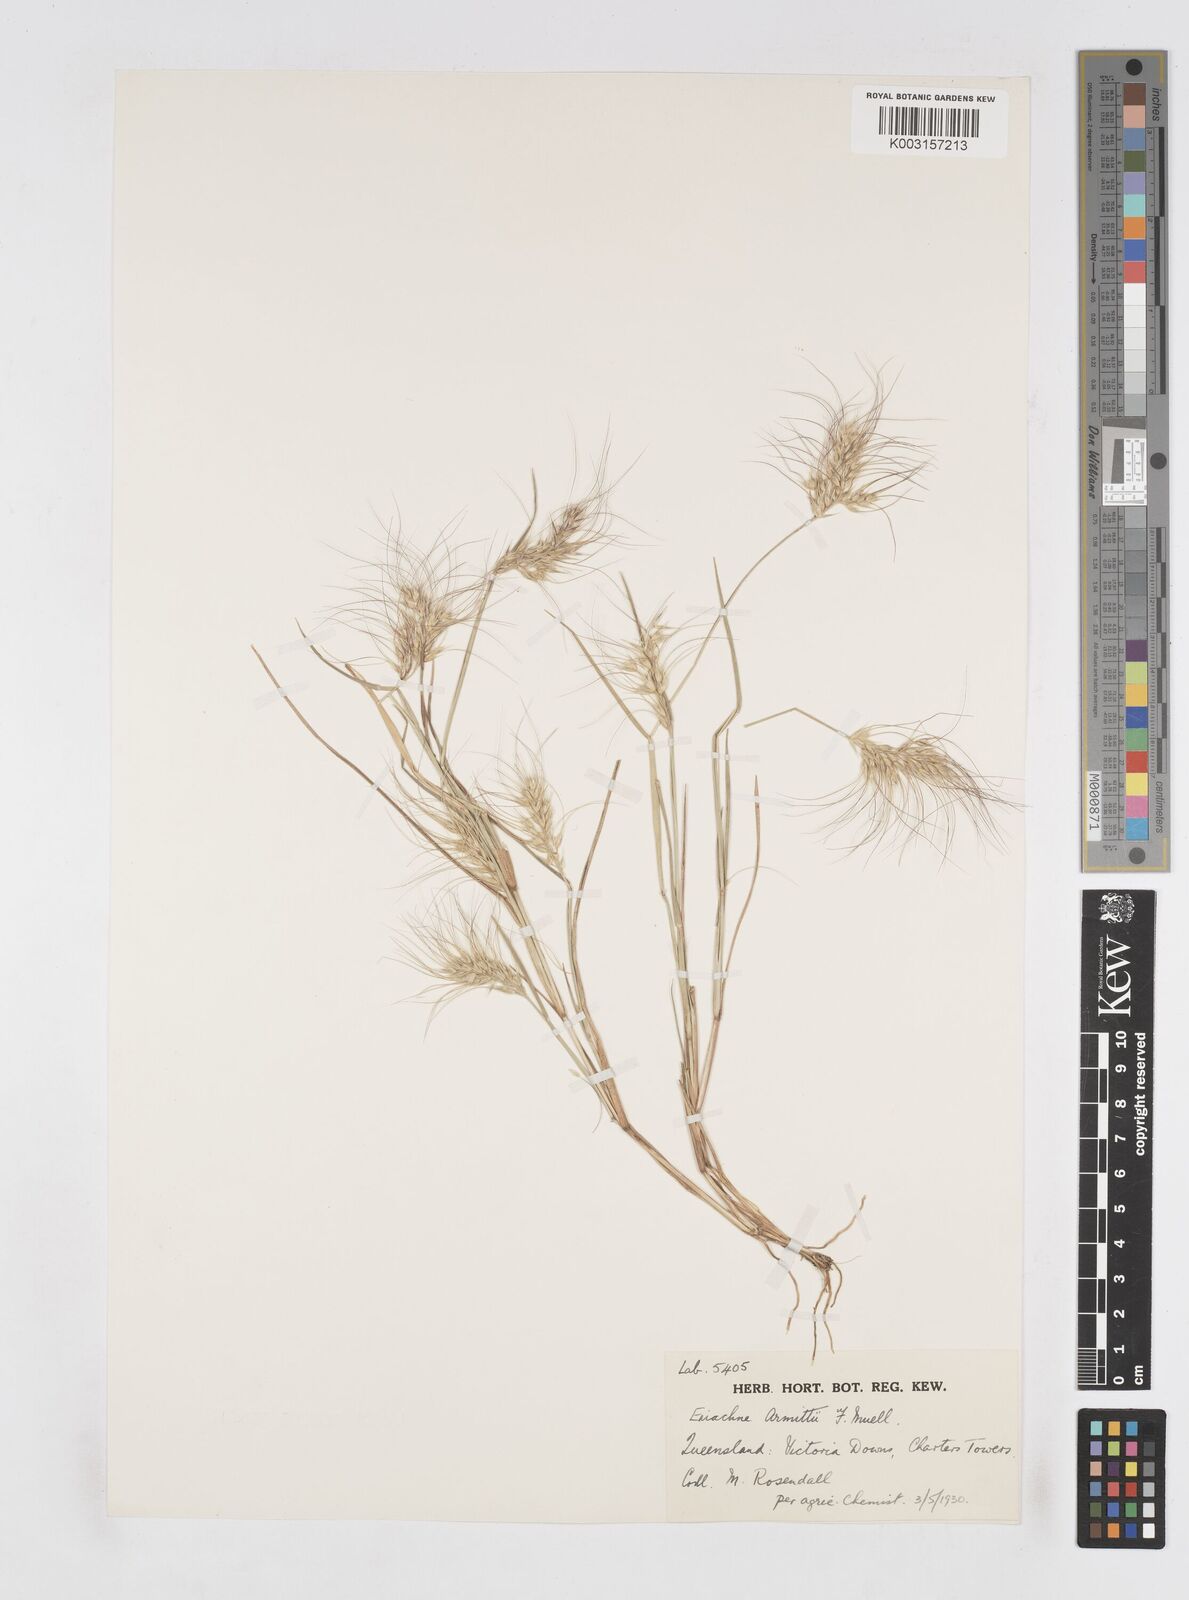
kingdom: Plantae
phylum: Tracheophyta
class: Liliopsida
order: Poales
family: Poaceae
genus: Eriachne
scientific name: Eriachne armitii
